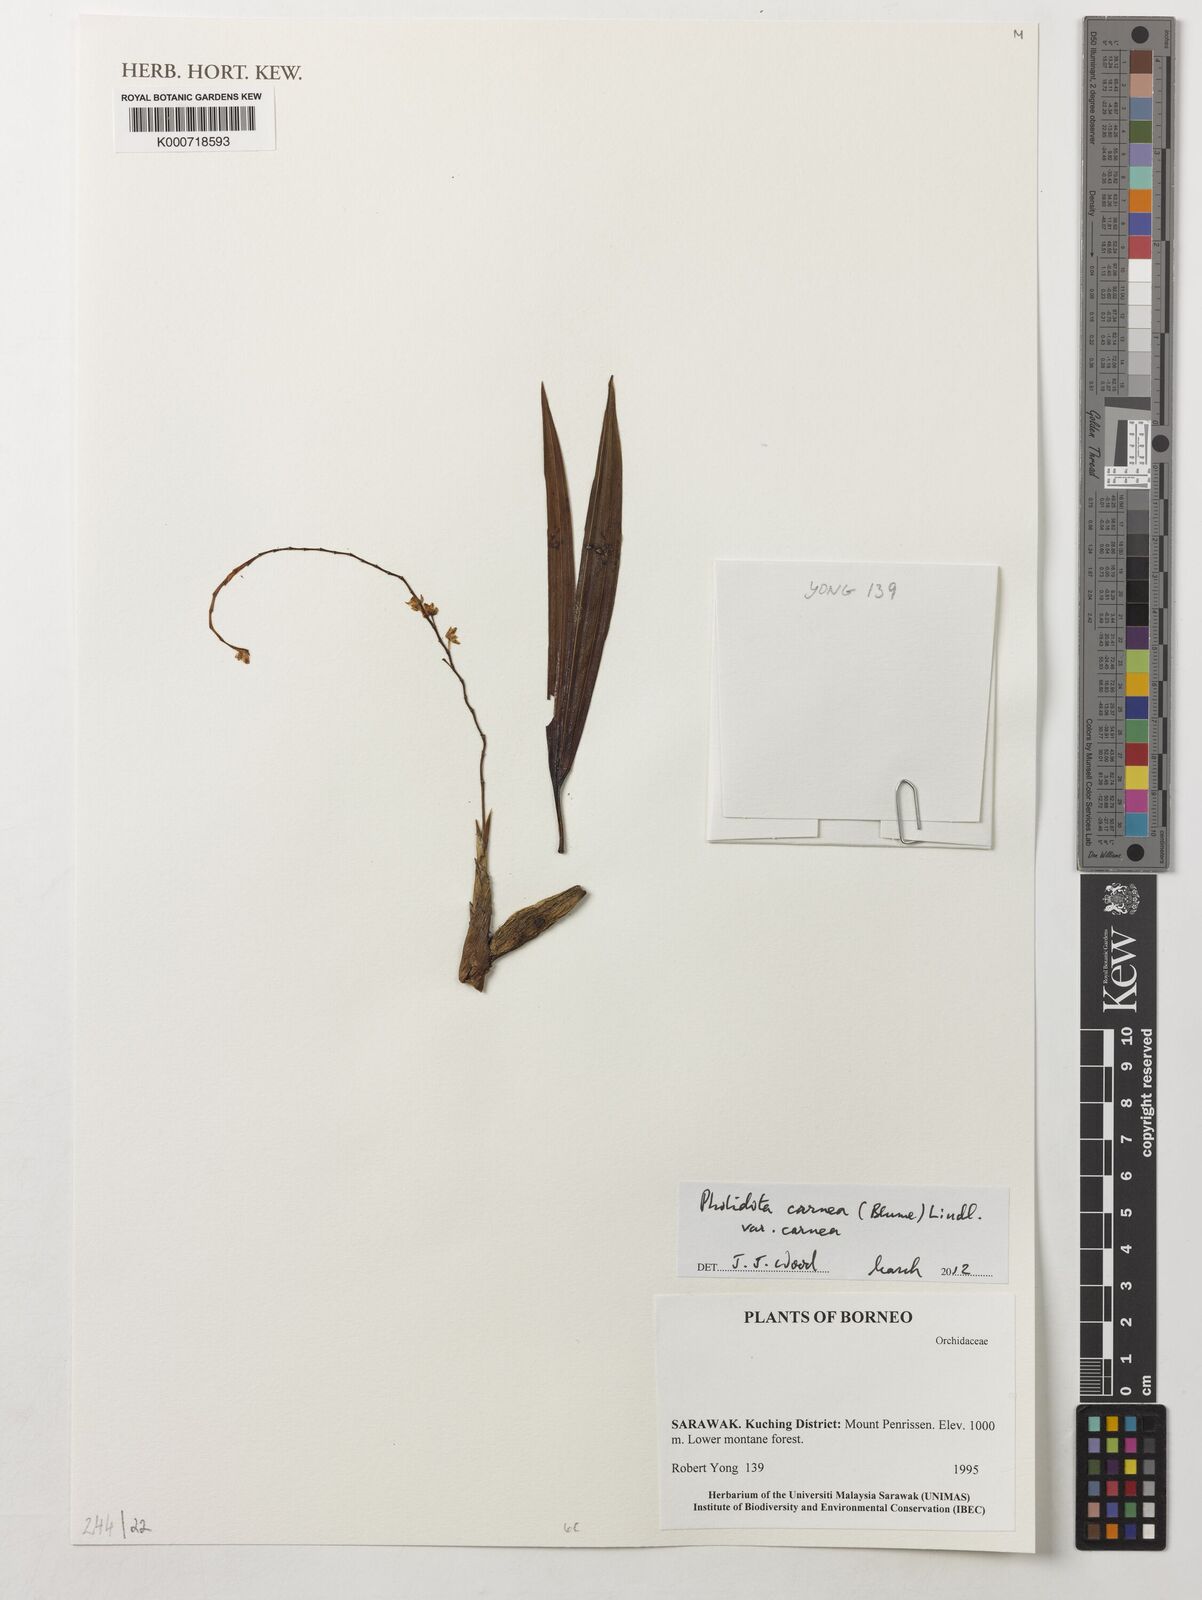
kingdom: Plantae
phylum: Tracheophyta
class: Liliopsida
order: Asparagales
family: Orchidaceae
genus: Coelogyne
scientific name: Coelogyne carnea
